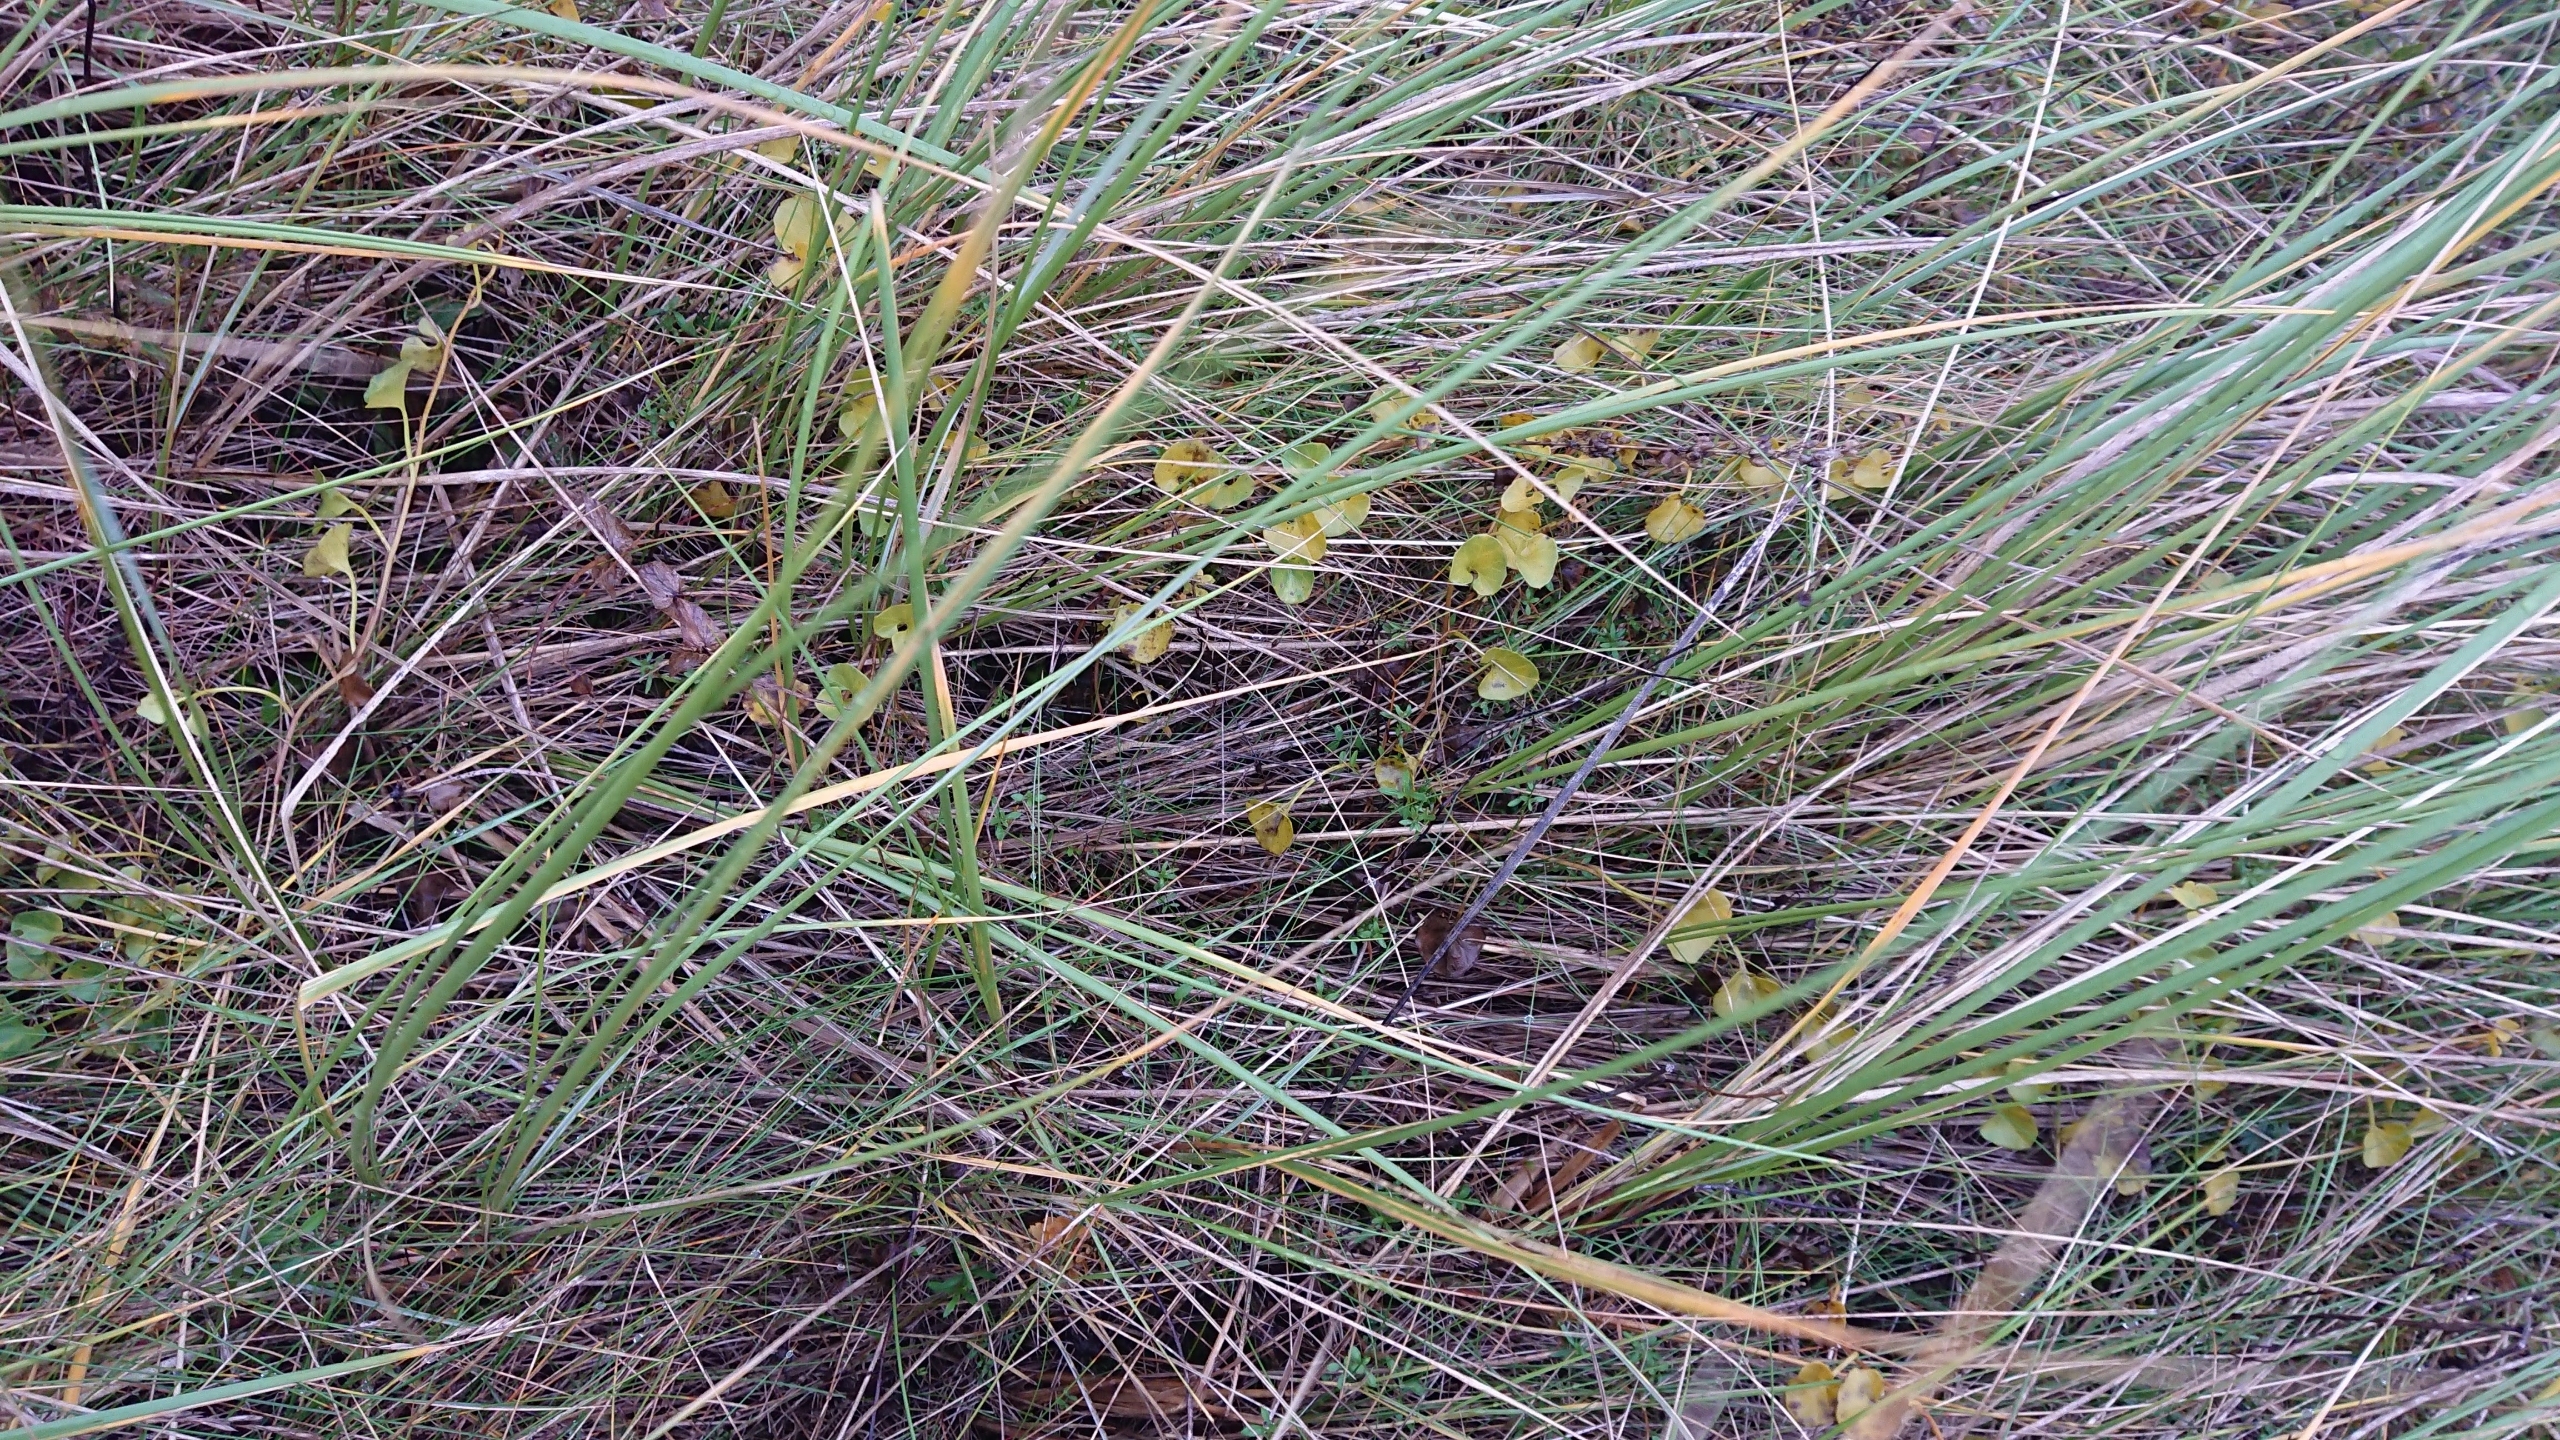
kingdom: Plantae
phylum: Tracheophyta
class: Magnoliopsida
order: Solanales
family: Convolvulaceae
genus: Calystegia
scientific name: Calystegia soldanella
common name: Strand-snerle
